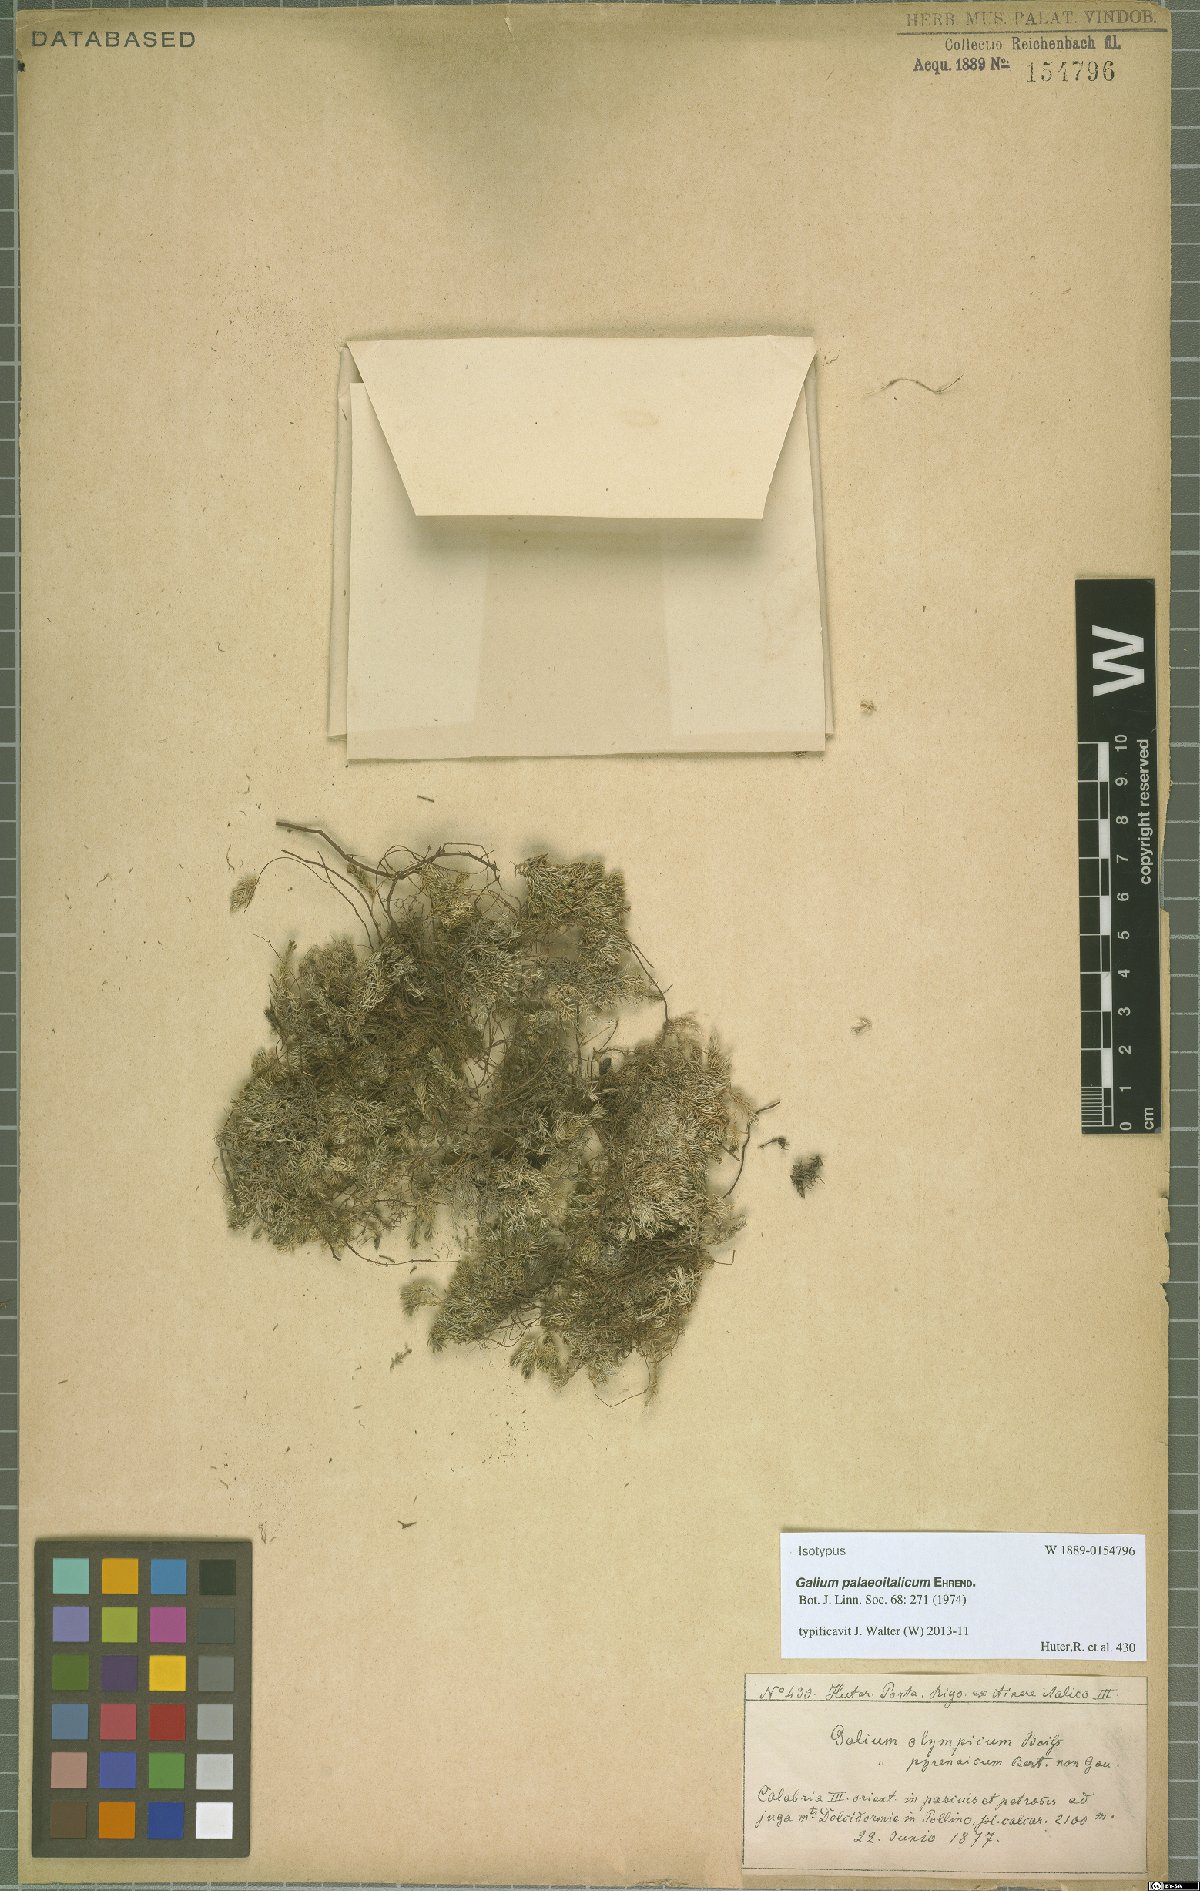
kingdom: Plantae
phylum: Tracheophyta
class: Magnoliopsida
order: Gentianales
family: Rubiaceae
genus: Galium
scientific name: Galium palaeoitalicum
